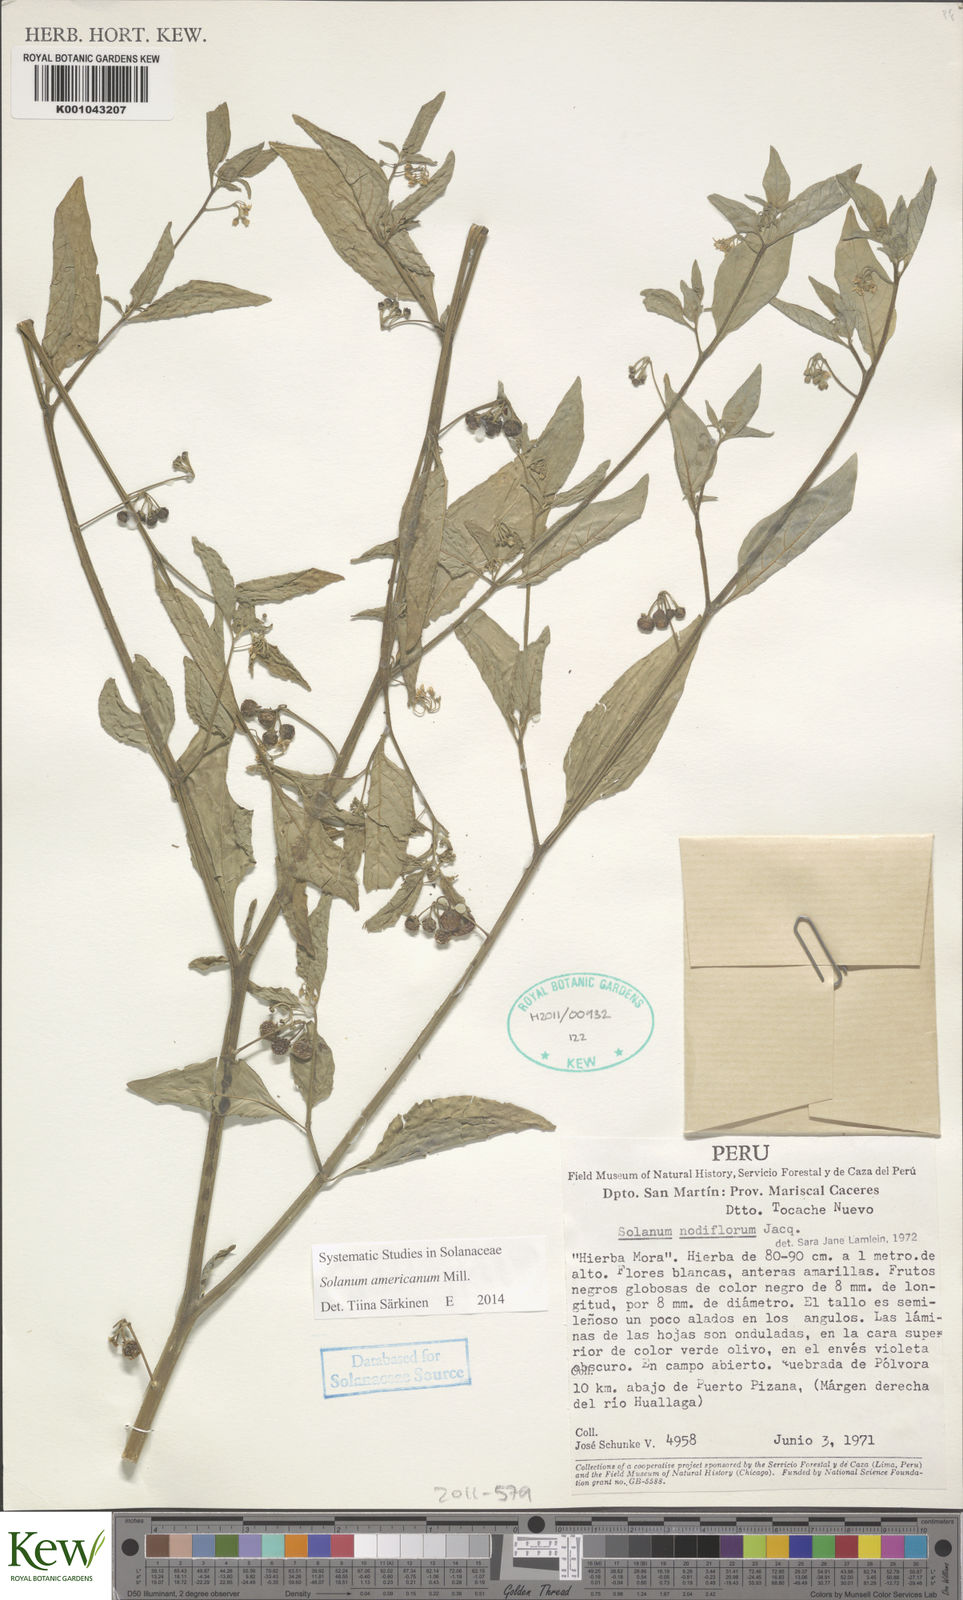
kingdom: Plantae
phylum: Tracheophyta
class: Magnoliopsida
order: Solanales
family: Solanaceae
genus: Solanum
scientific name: Solanum americanum
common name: American black nightshade
